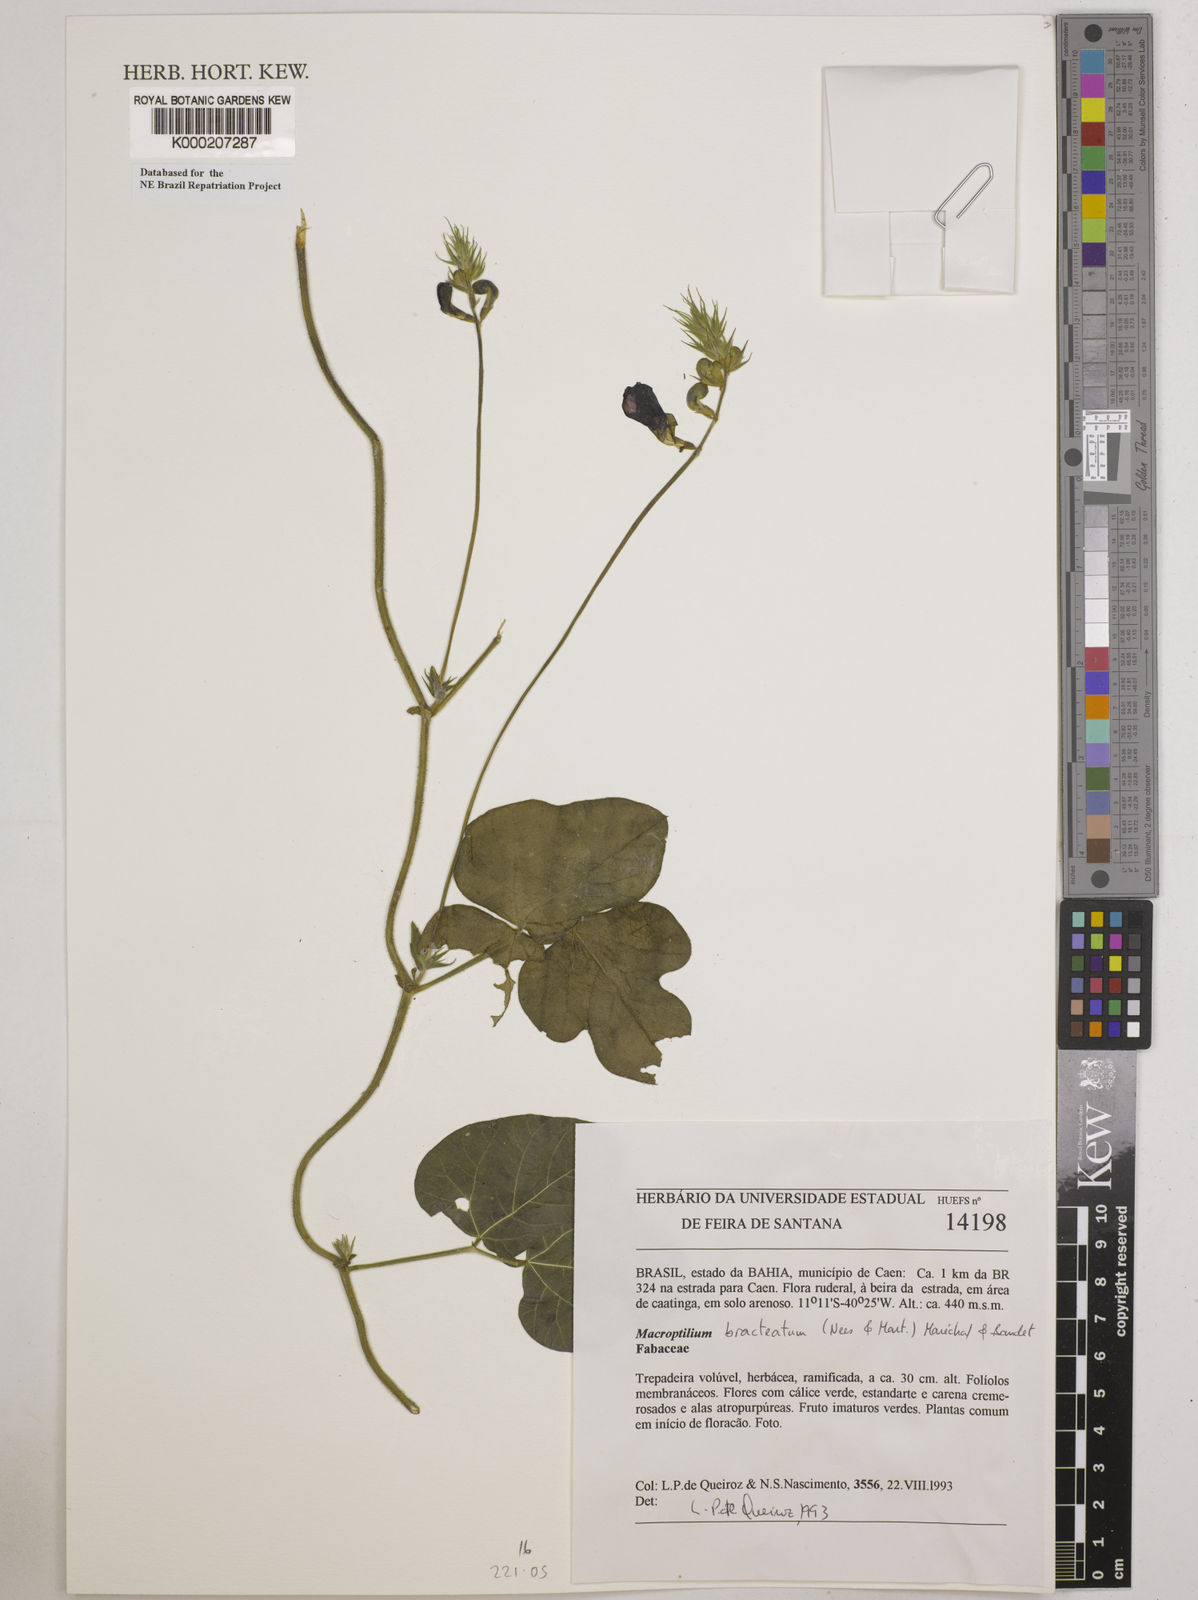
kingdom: Plantae
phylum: Tracheophyta
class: Magnoliopsida
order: Fabales
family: Fabaceae
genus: Macroptilium
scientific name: Macroptilium
